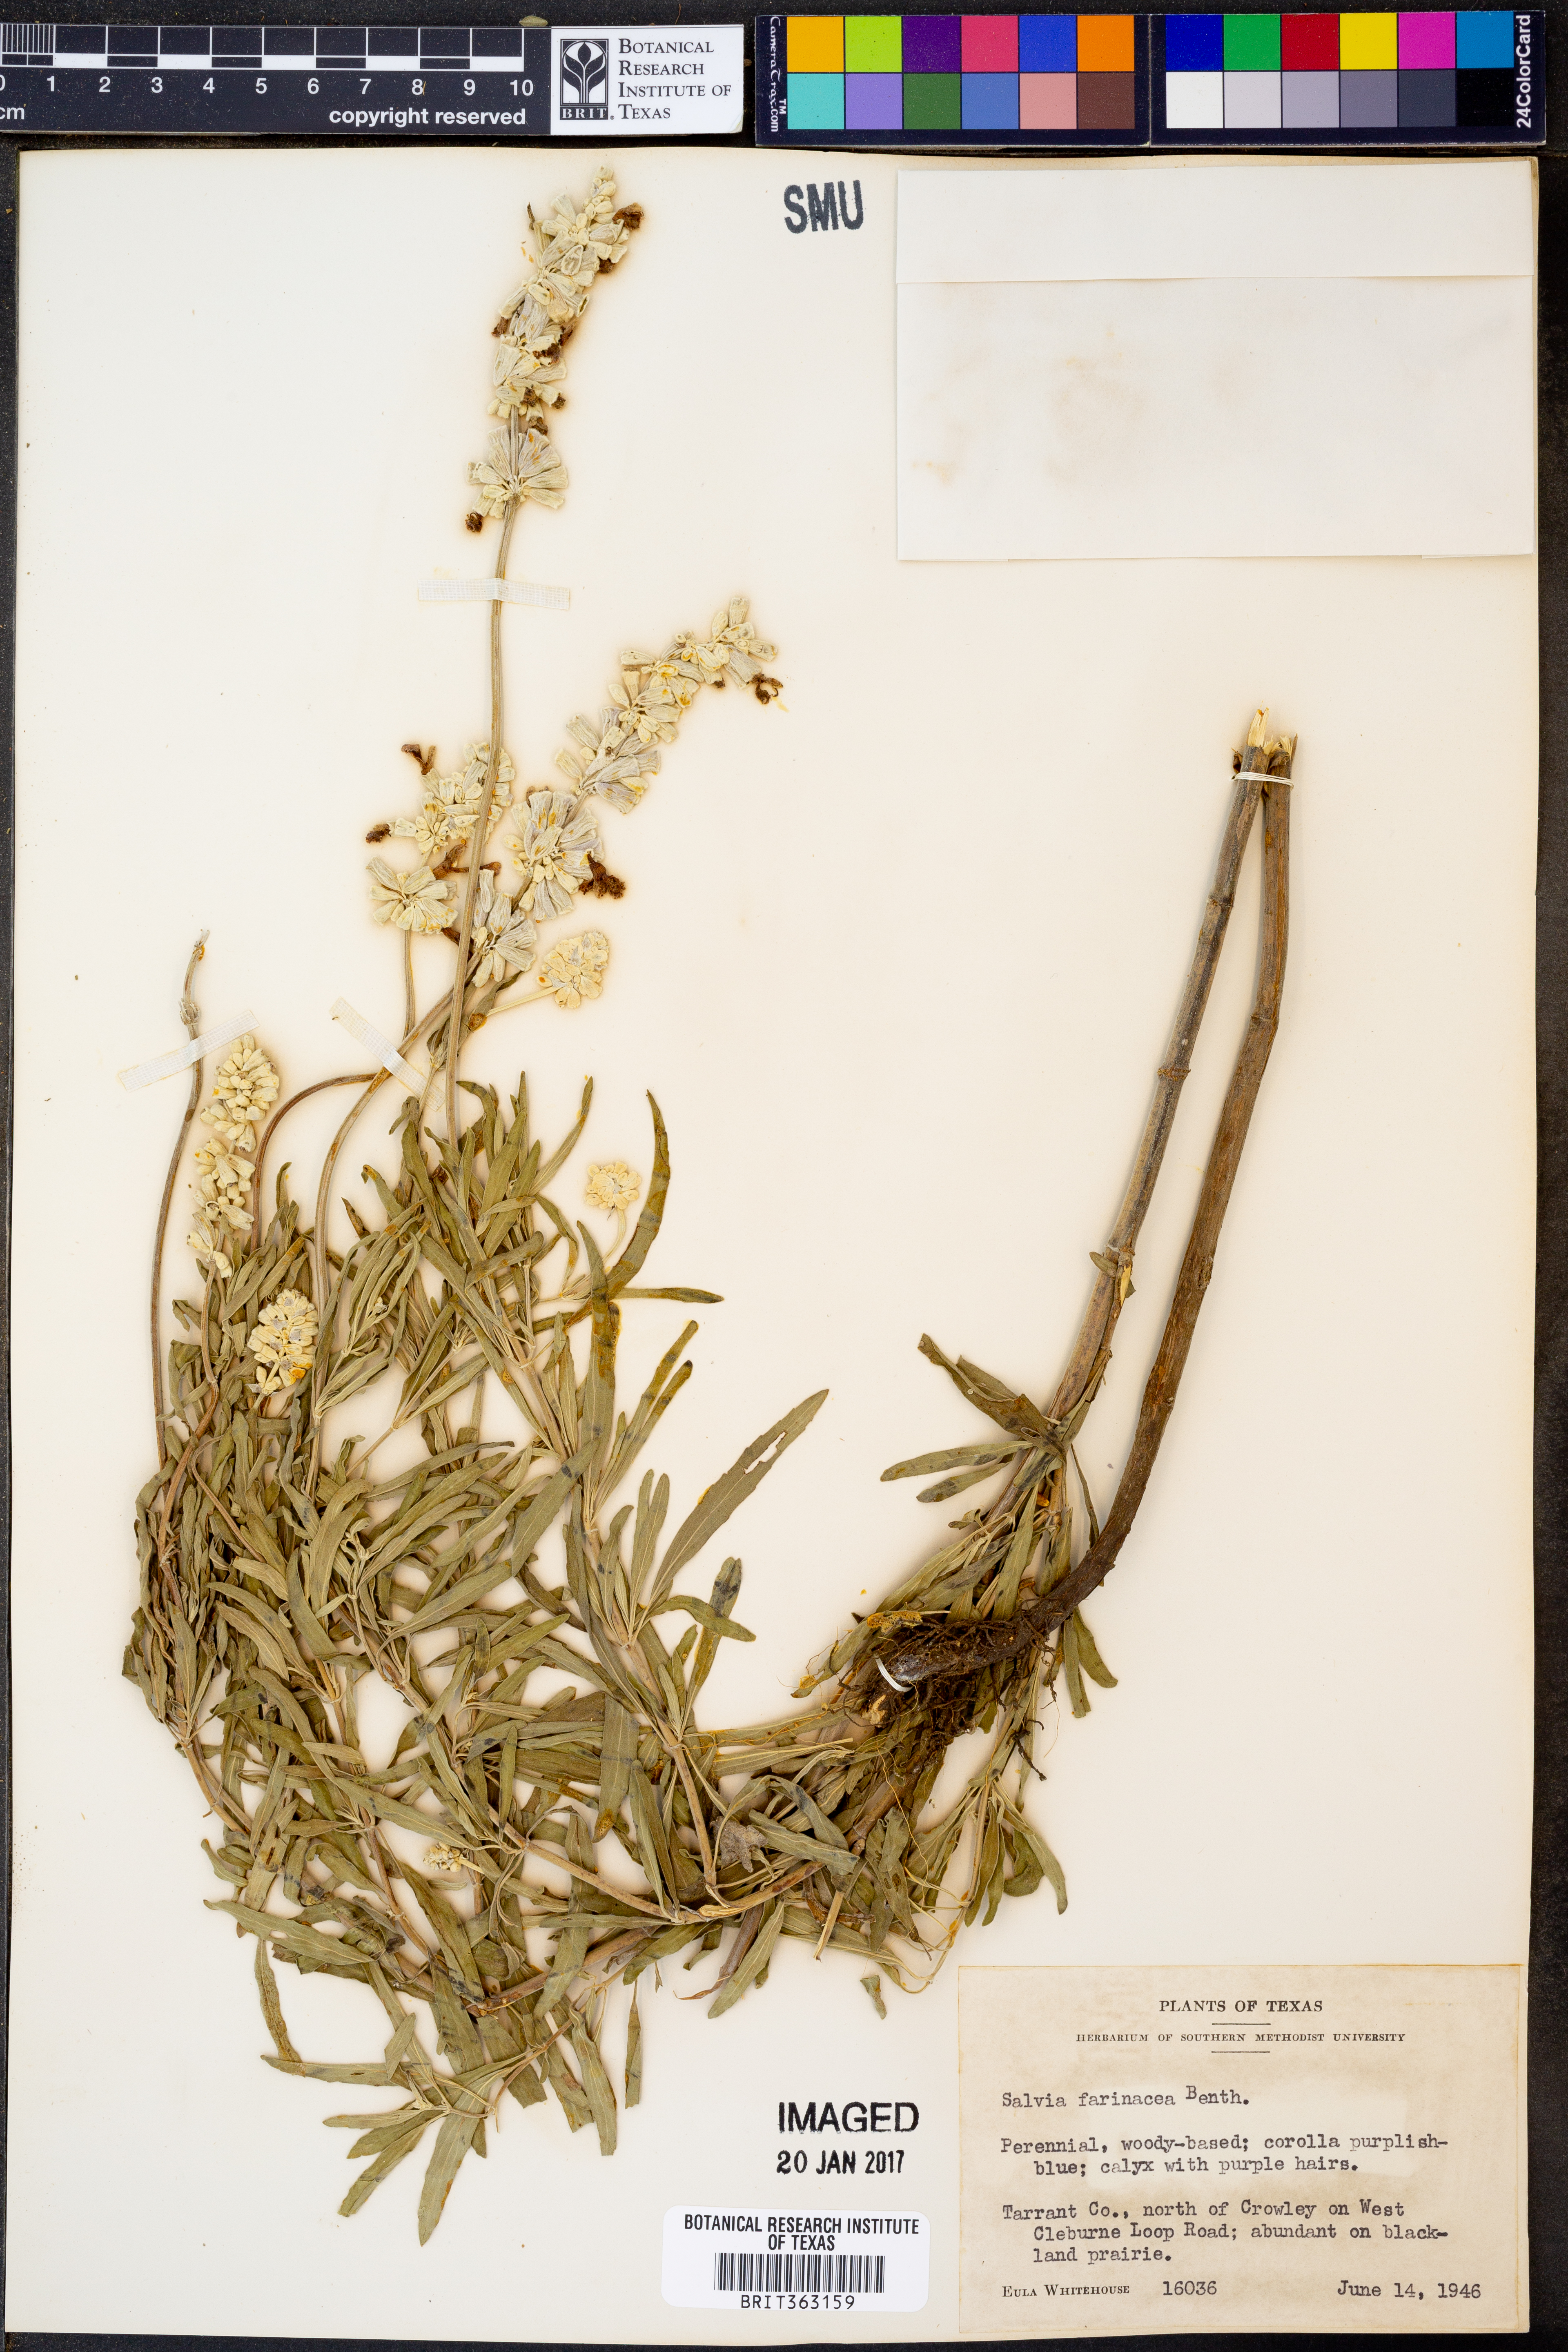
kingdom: Plantae
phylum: Tracheophyta
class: Magnoliopsida
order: Lamiales
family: Lamiaceae
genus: Salvia
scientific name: Salvia farinacea
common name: Mealy sage
